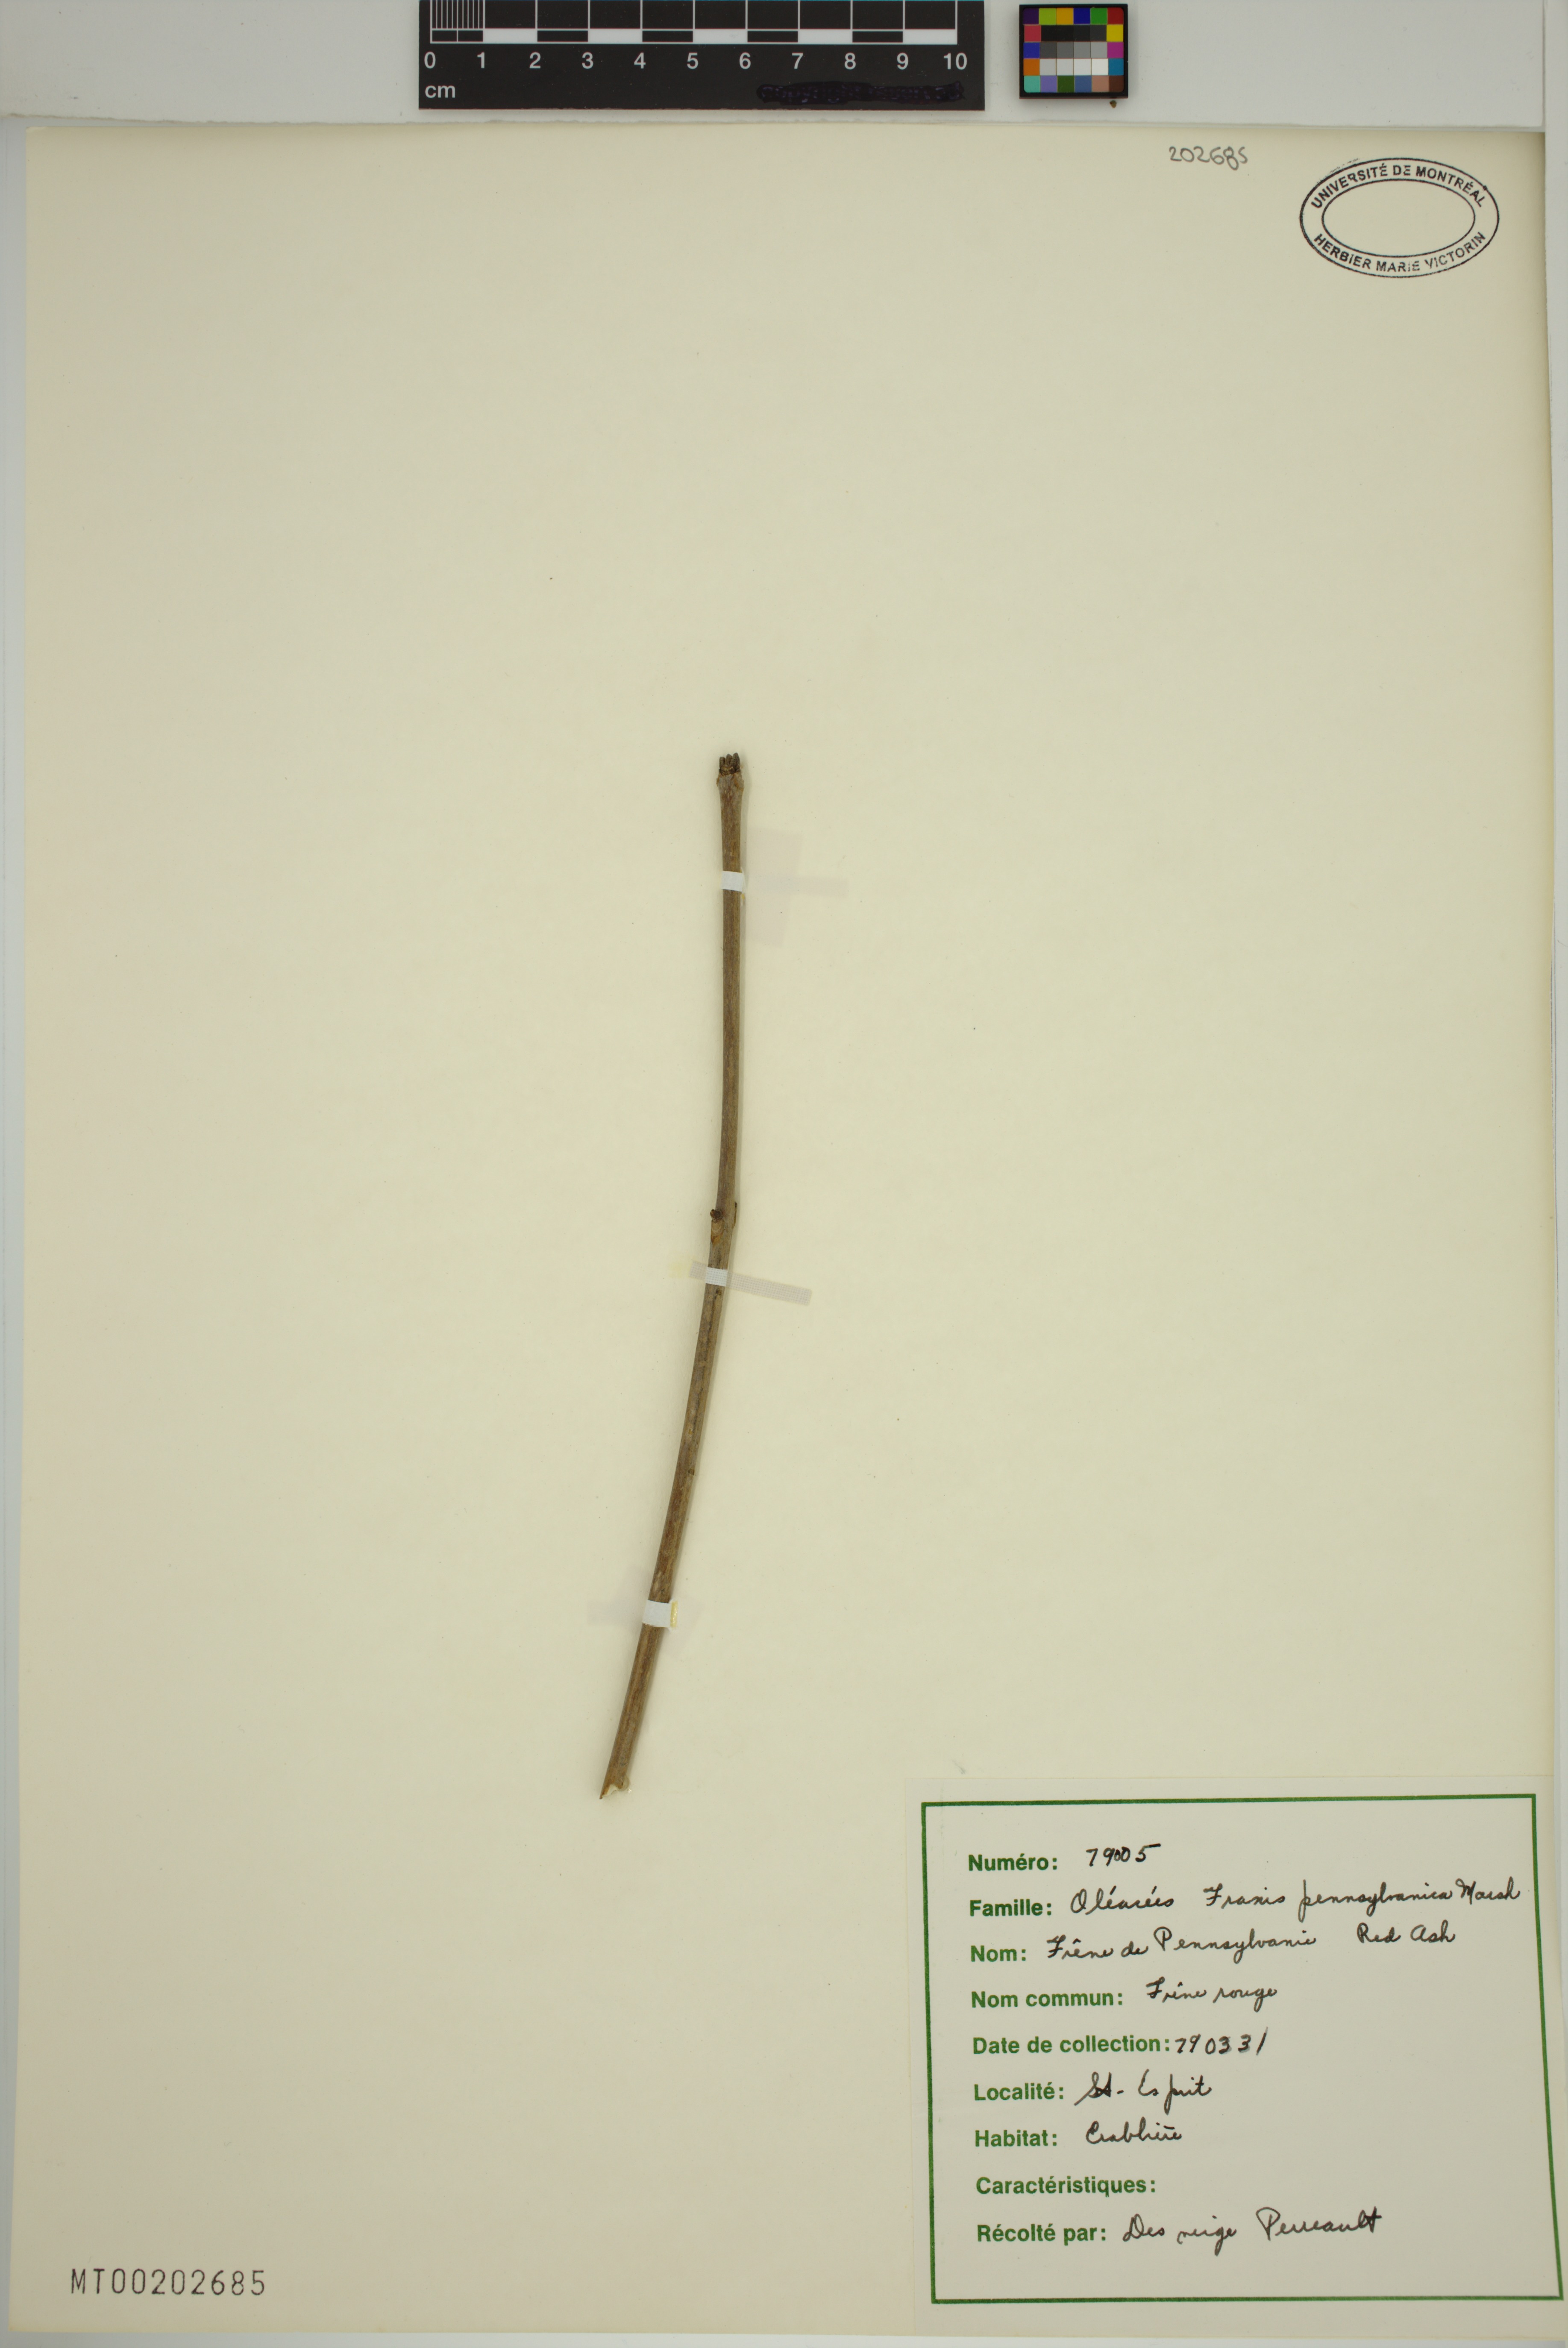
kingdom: Plantae
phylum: Tracheophyta
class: Magnoliopsida
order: Lamiales
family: Oleaceae
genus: Fraxinus
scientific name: Fraxinus pennsylvanica
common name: Green ash
